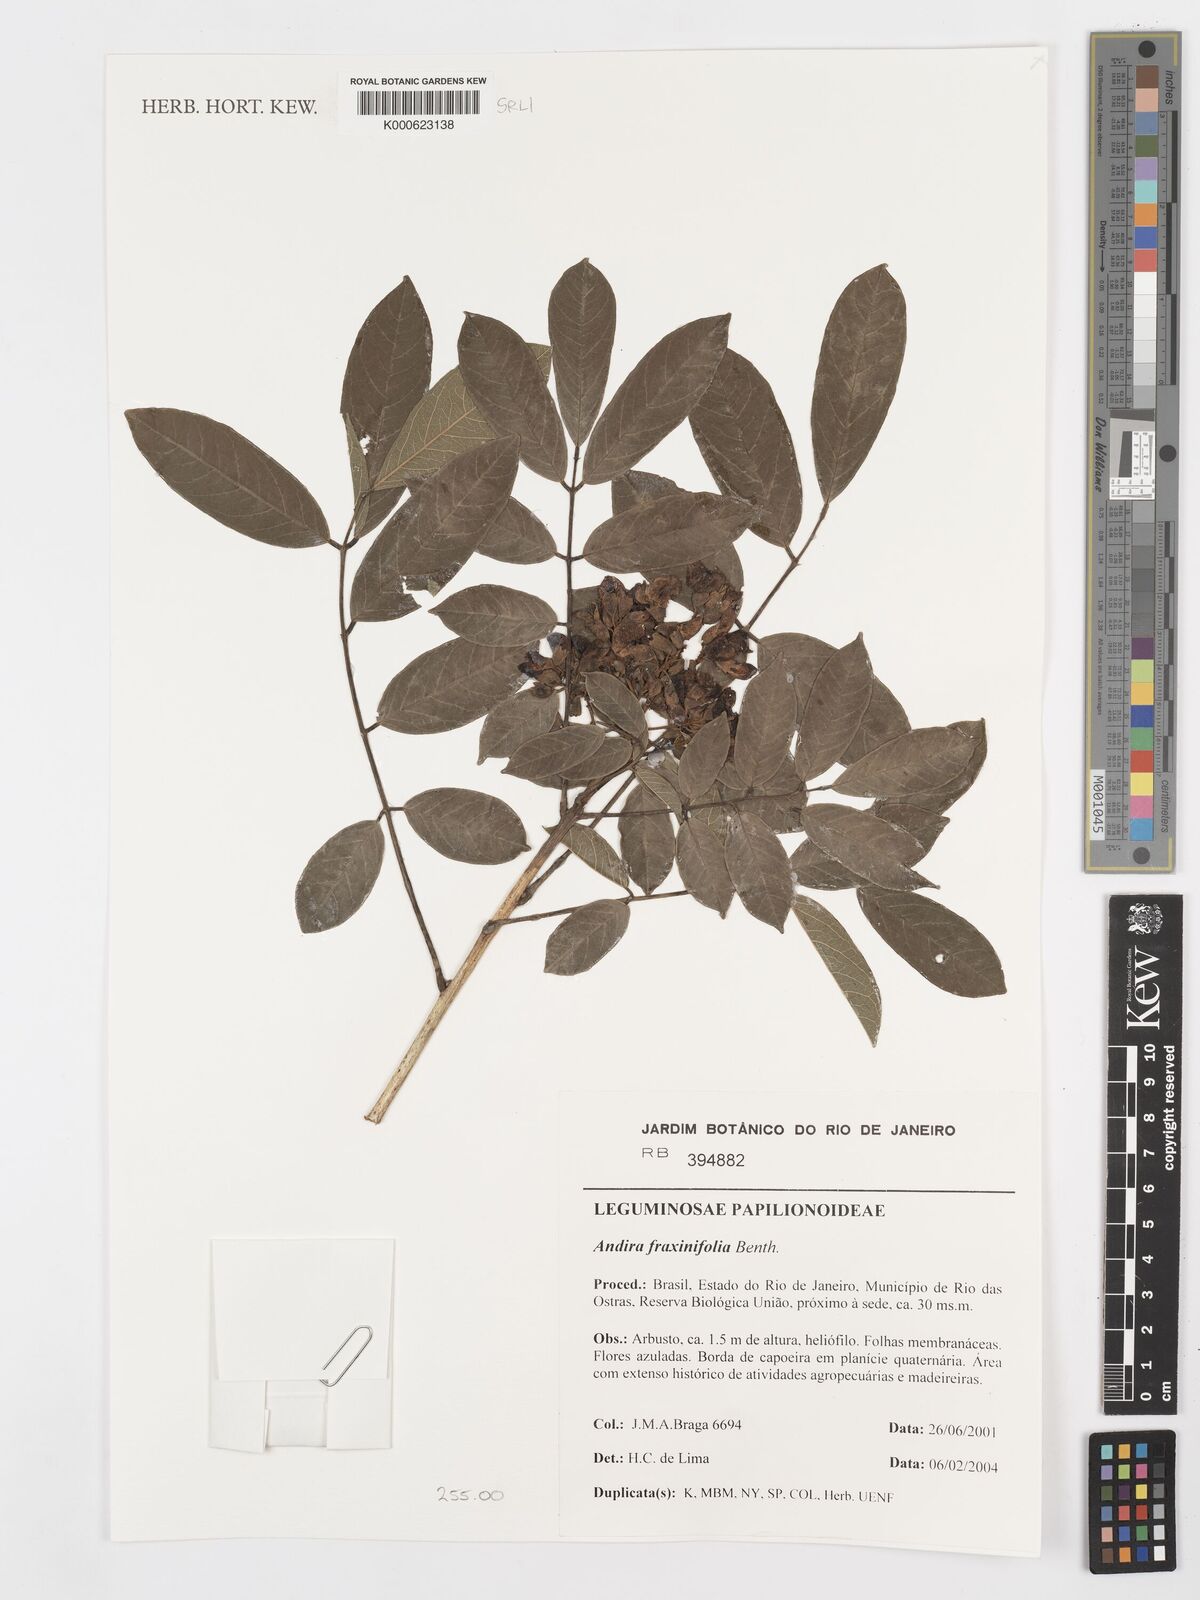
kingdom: Plantae
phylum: Tracheophyta
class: Magnoliopsida
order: Fabales
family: Fabaceae
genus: Andira
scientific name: Andira fraxinifolia
